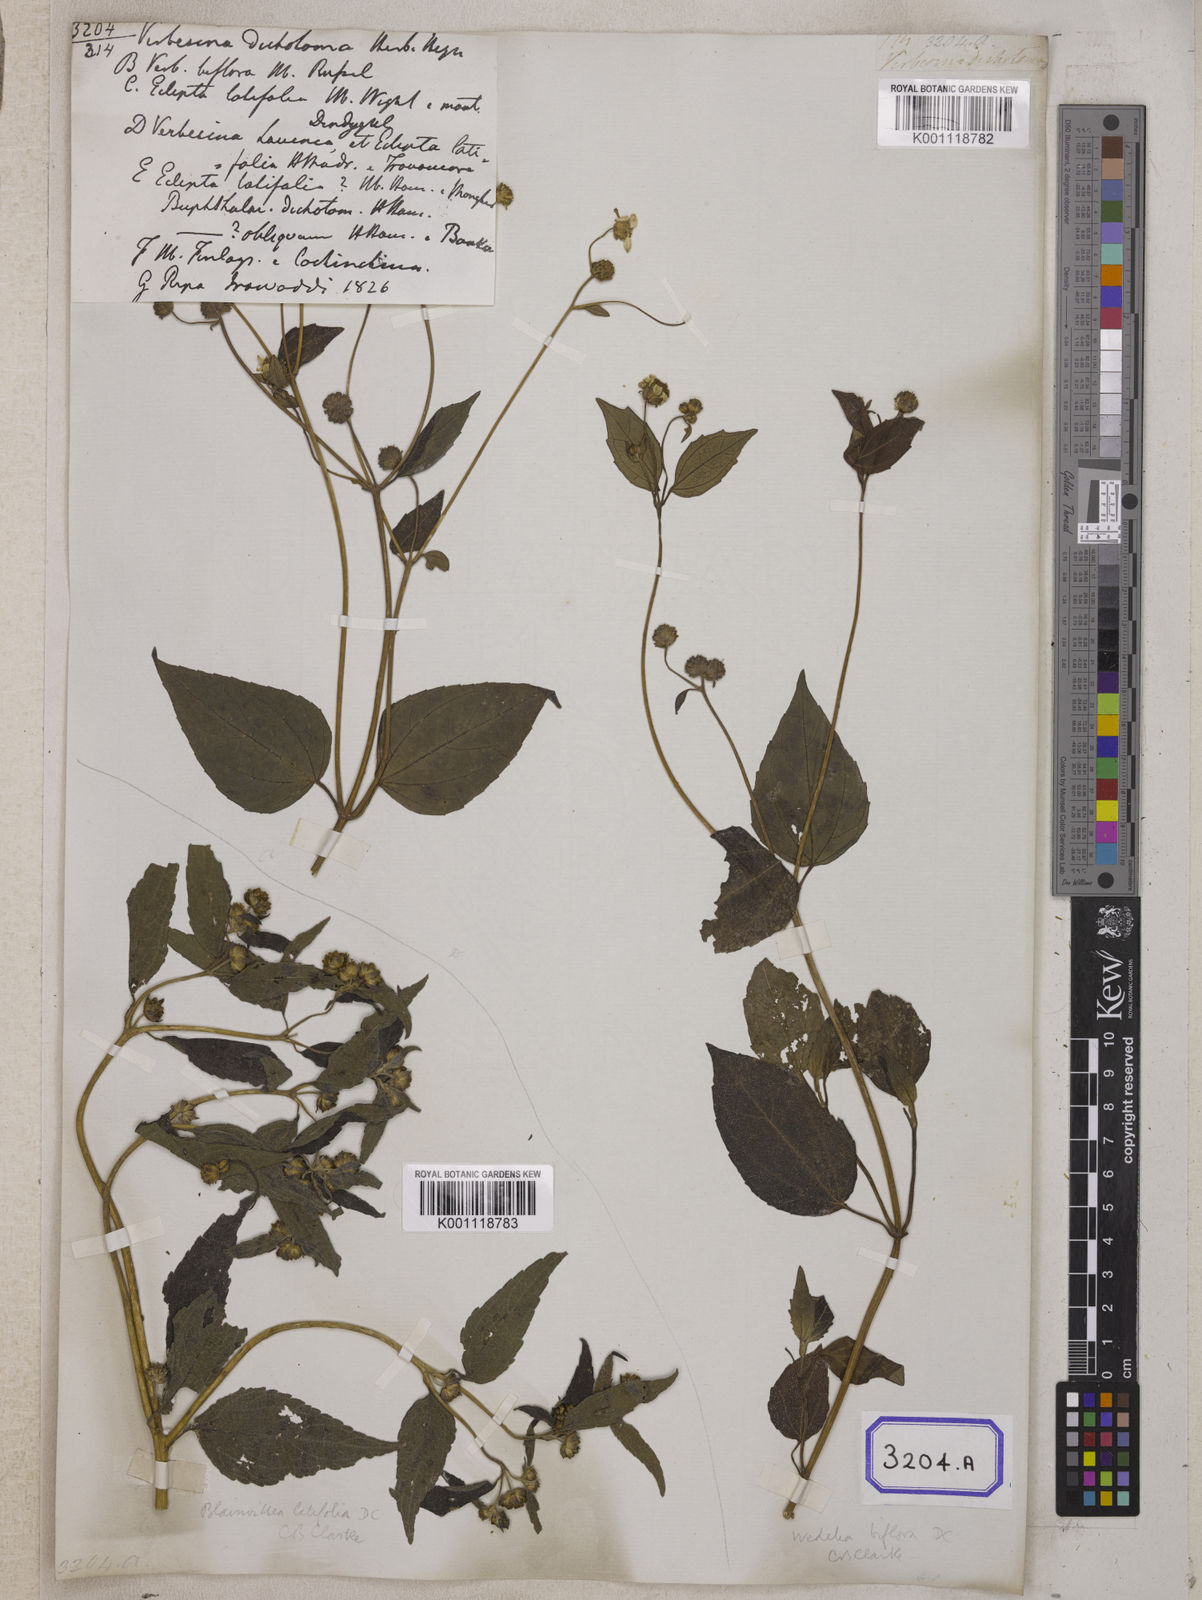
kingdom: Plantae
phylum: Tracheophyta
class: Magnoliopsida
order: Asterales
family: Asteraceae
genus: Blainvillea
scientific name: Blainvillea acmella
